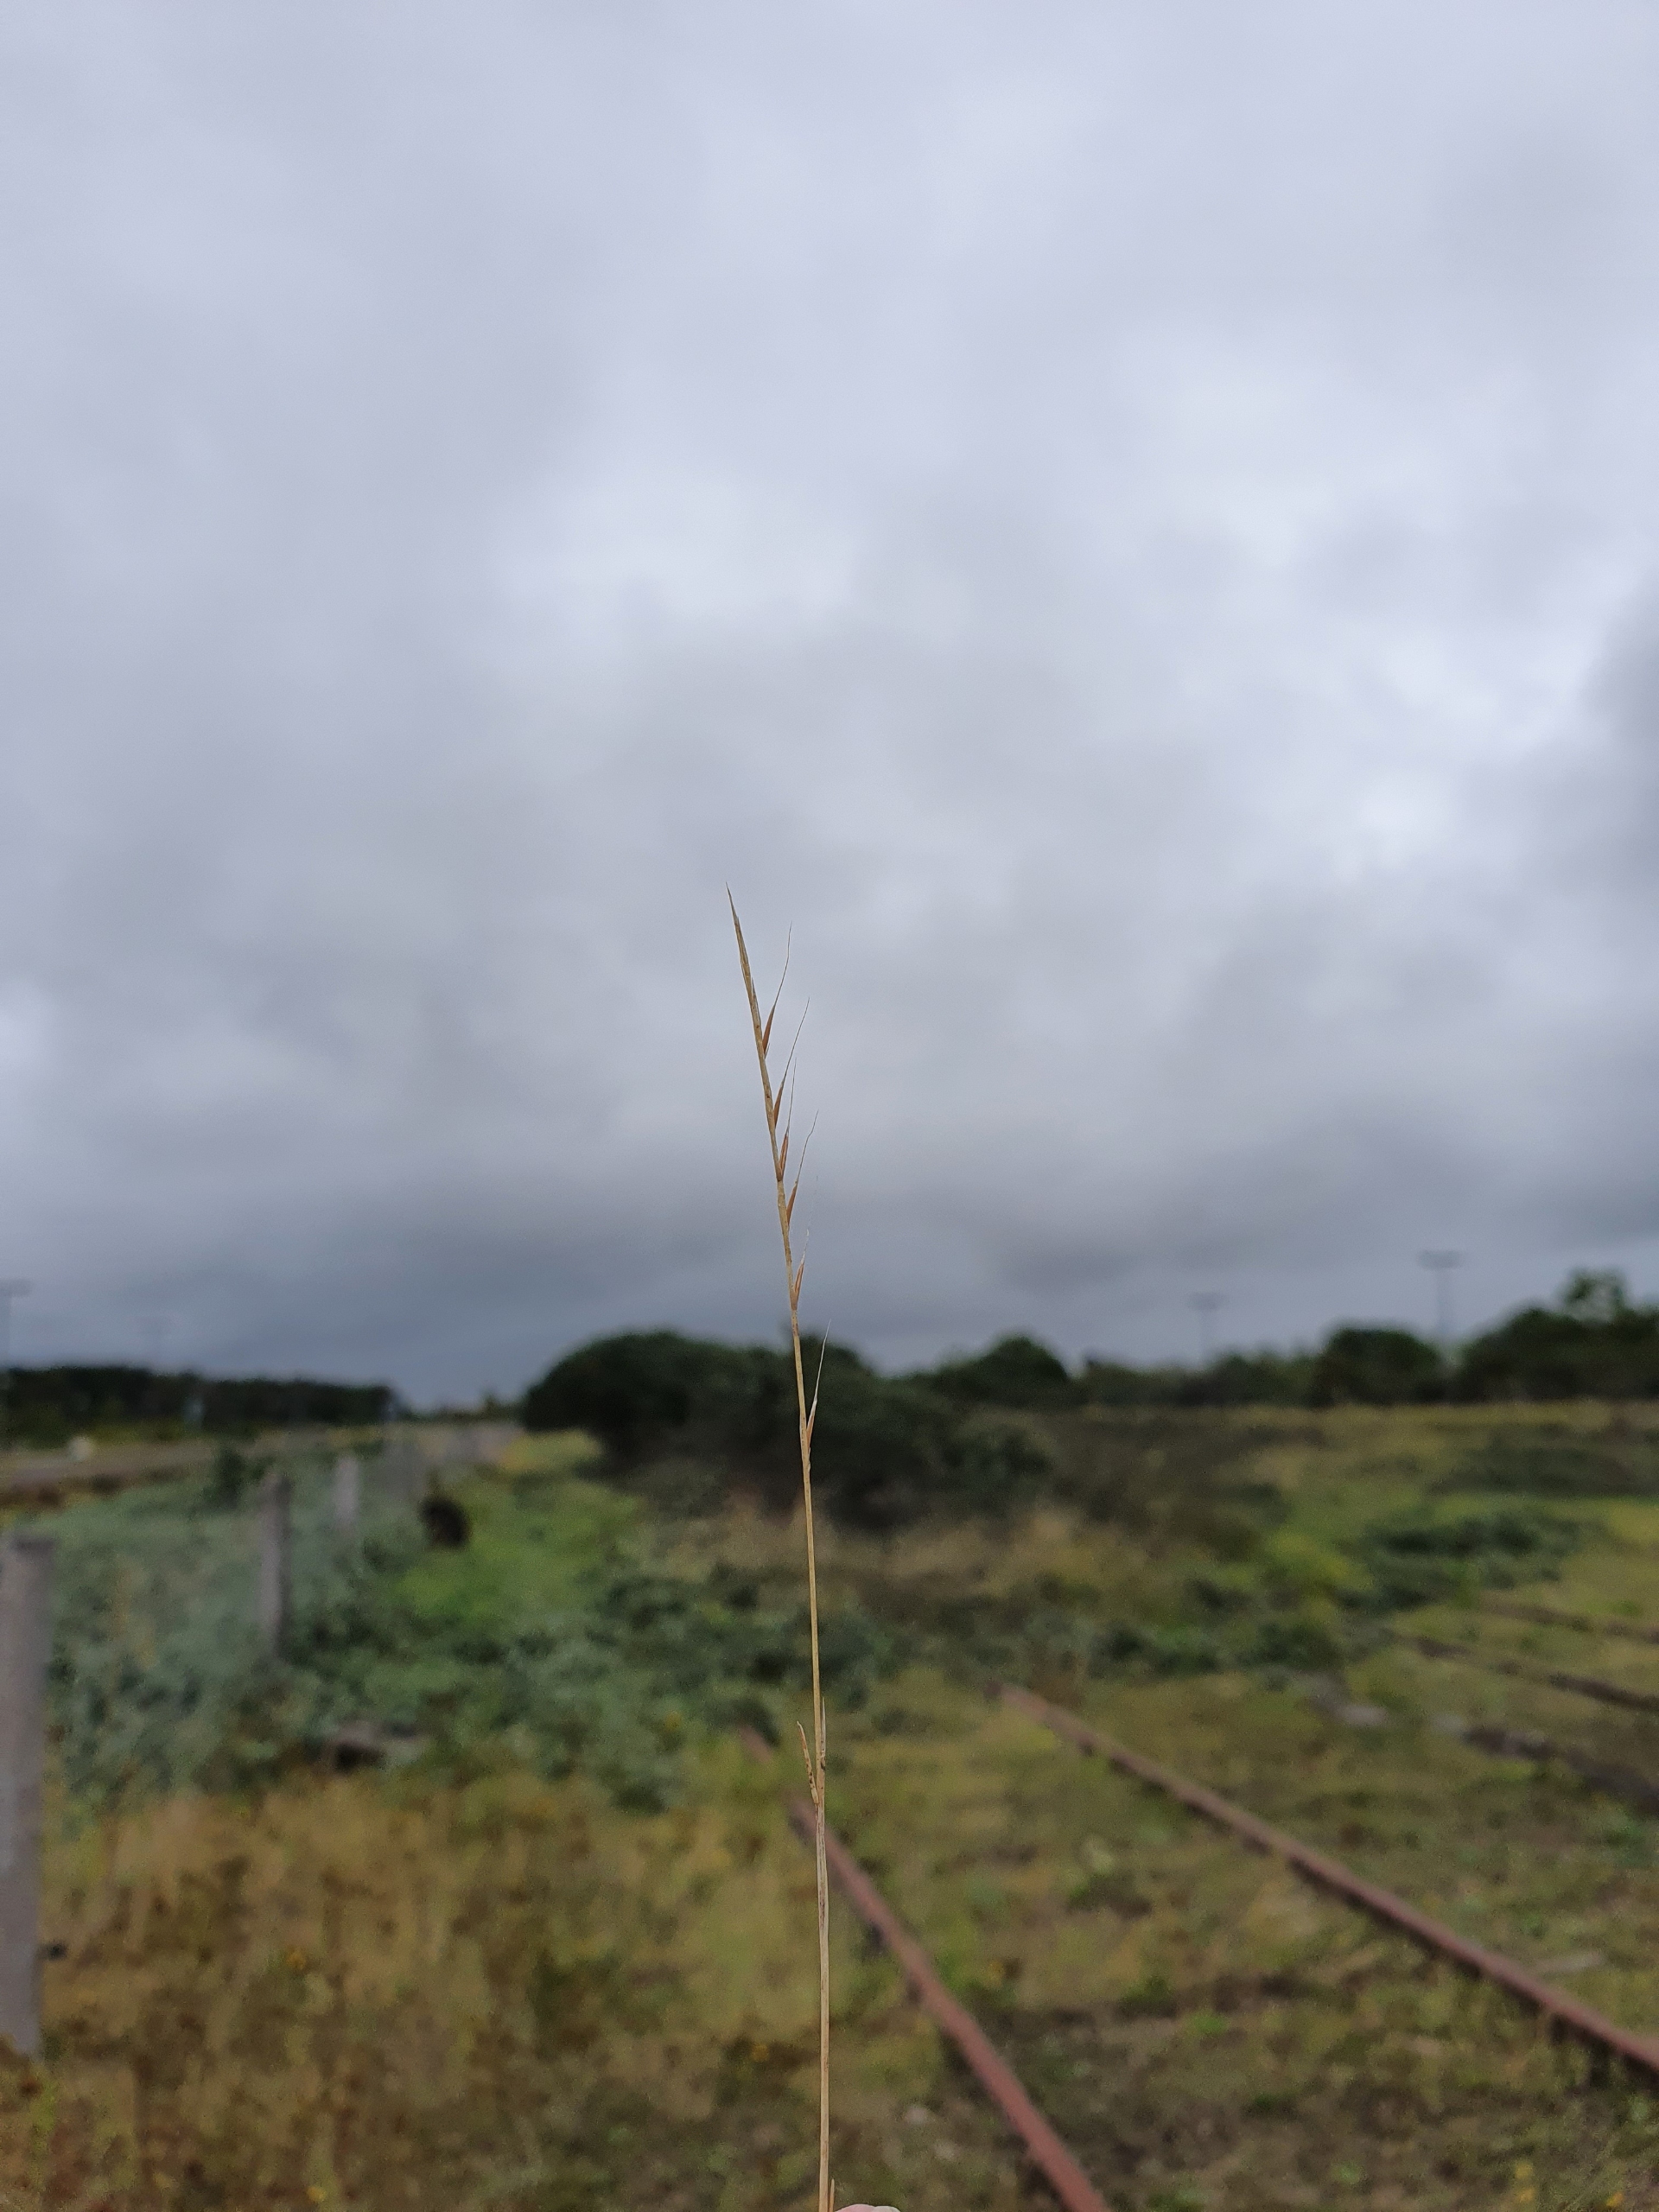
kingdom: Plantae
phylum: Tracheophyta
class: Liliopsida
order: Poales
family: Poaceae
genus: Festuca
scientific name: Festuca myuros
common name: Stor væselhale
